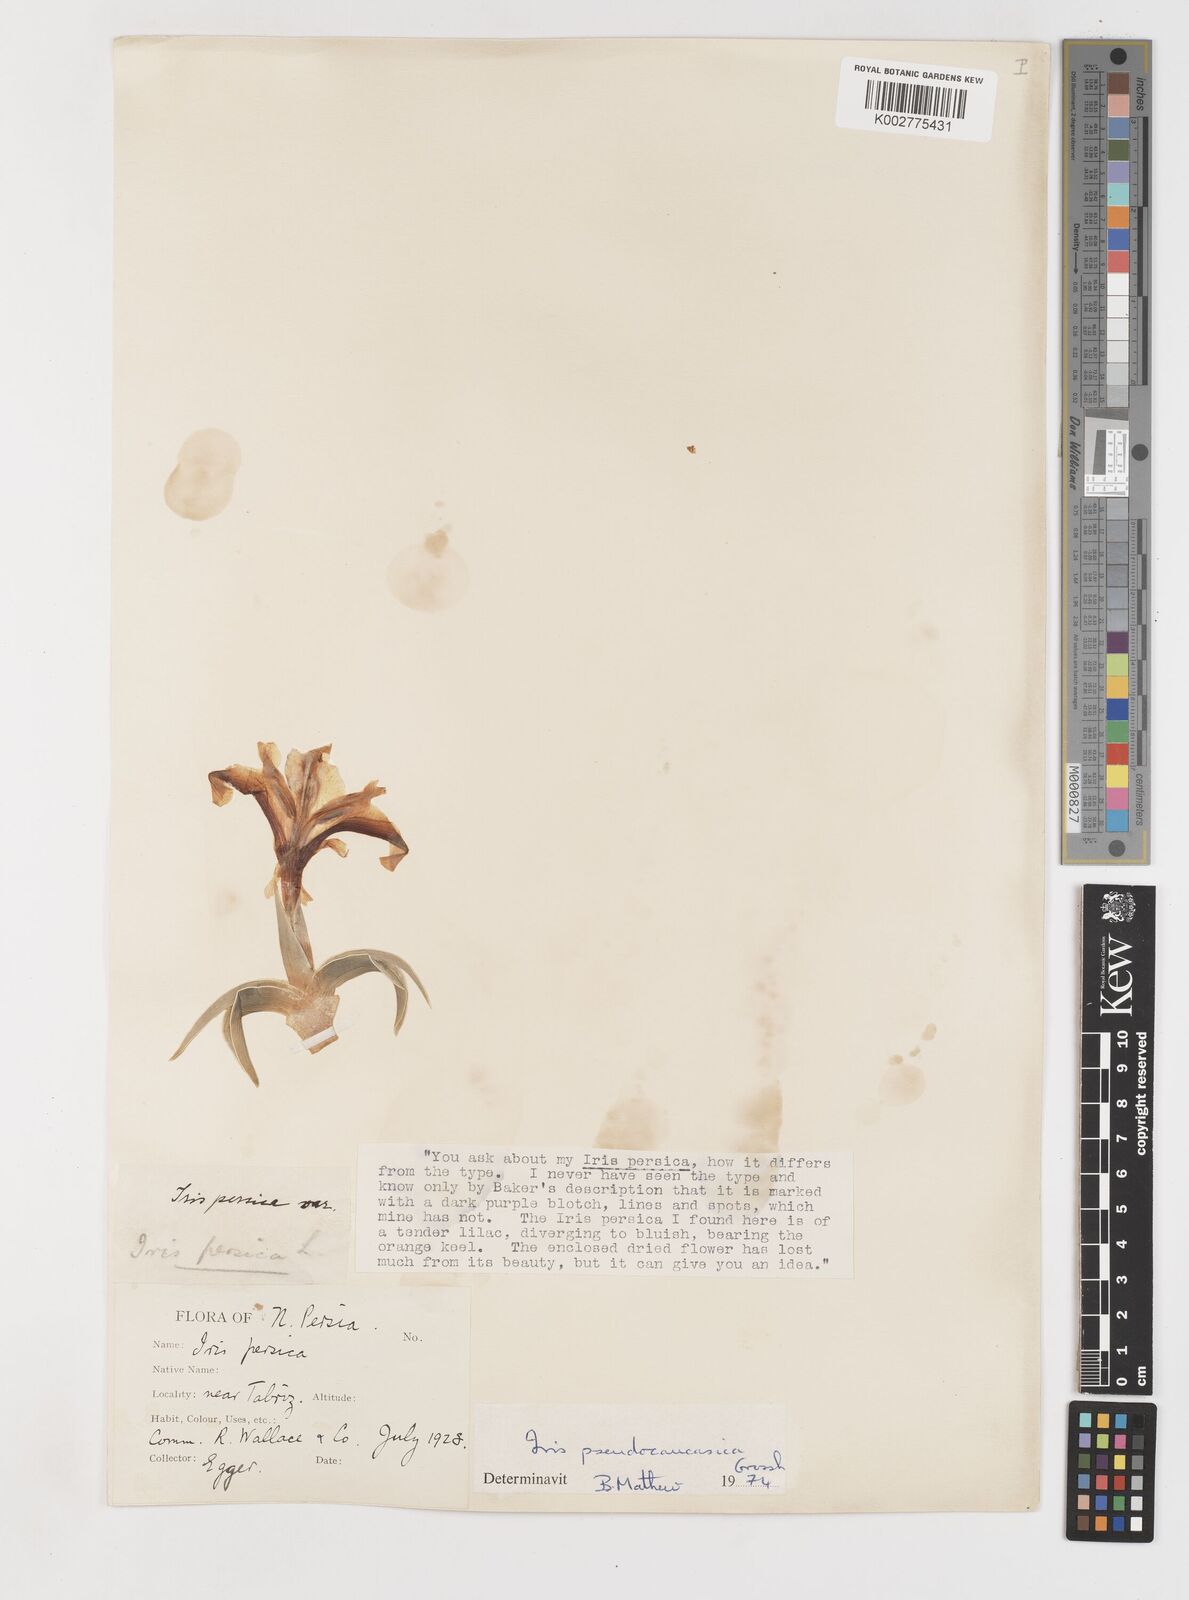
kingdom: Plantae
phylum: Tracheophyta
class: Liliopsida
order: Asparagales
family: Iridaceae
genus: Iris
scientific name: Iris pseudocaucasica
